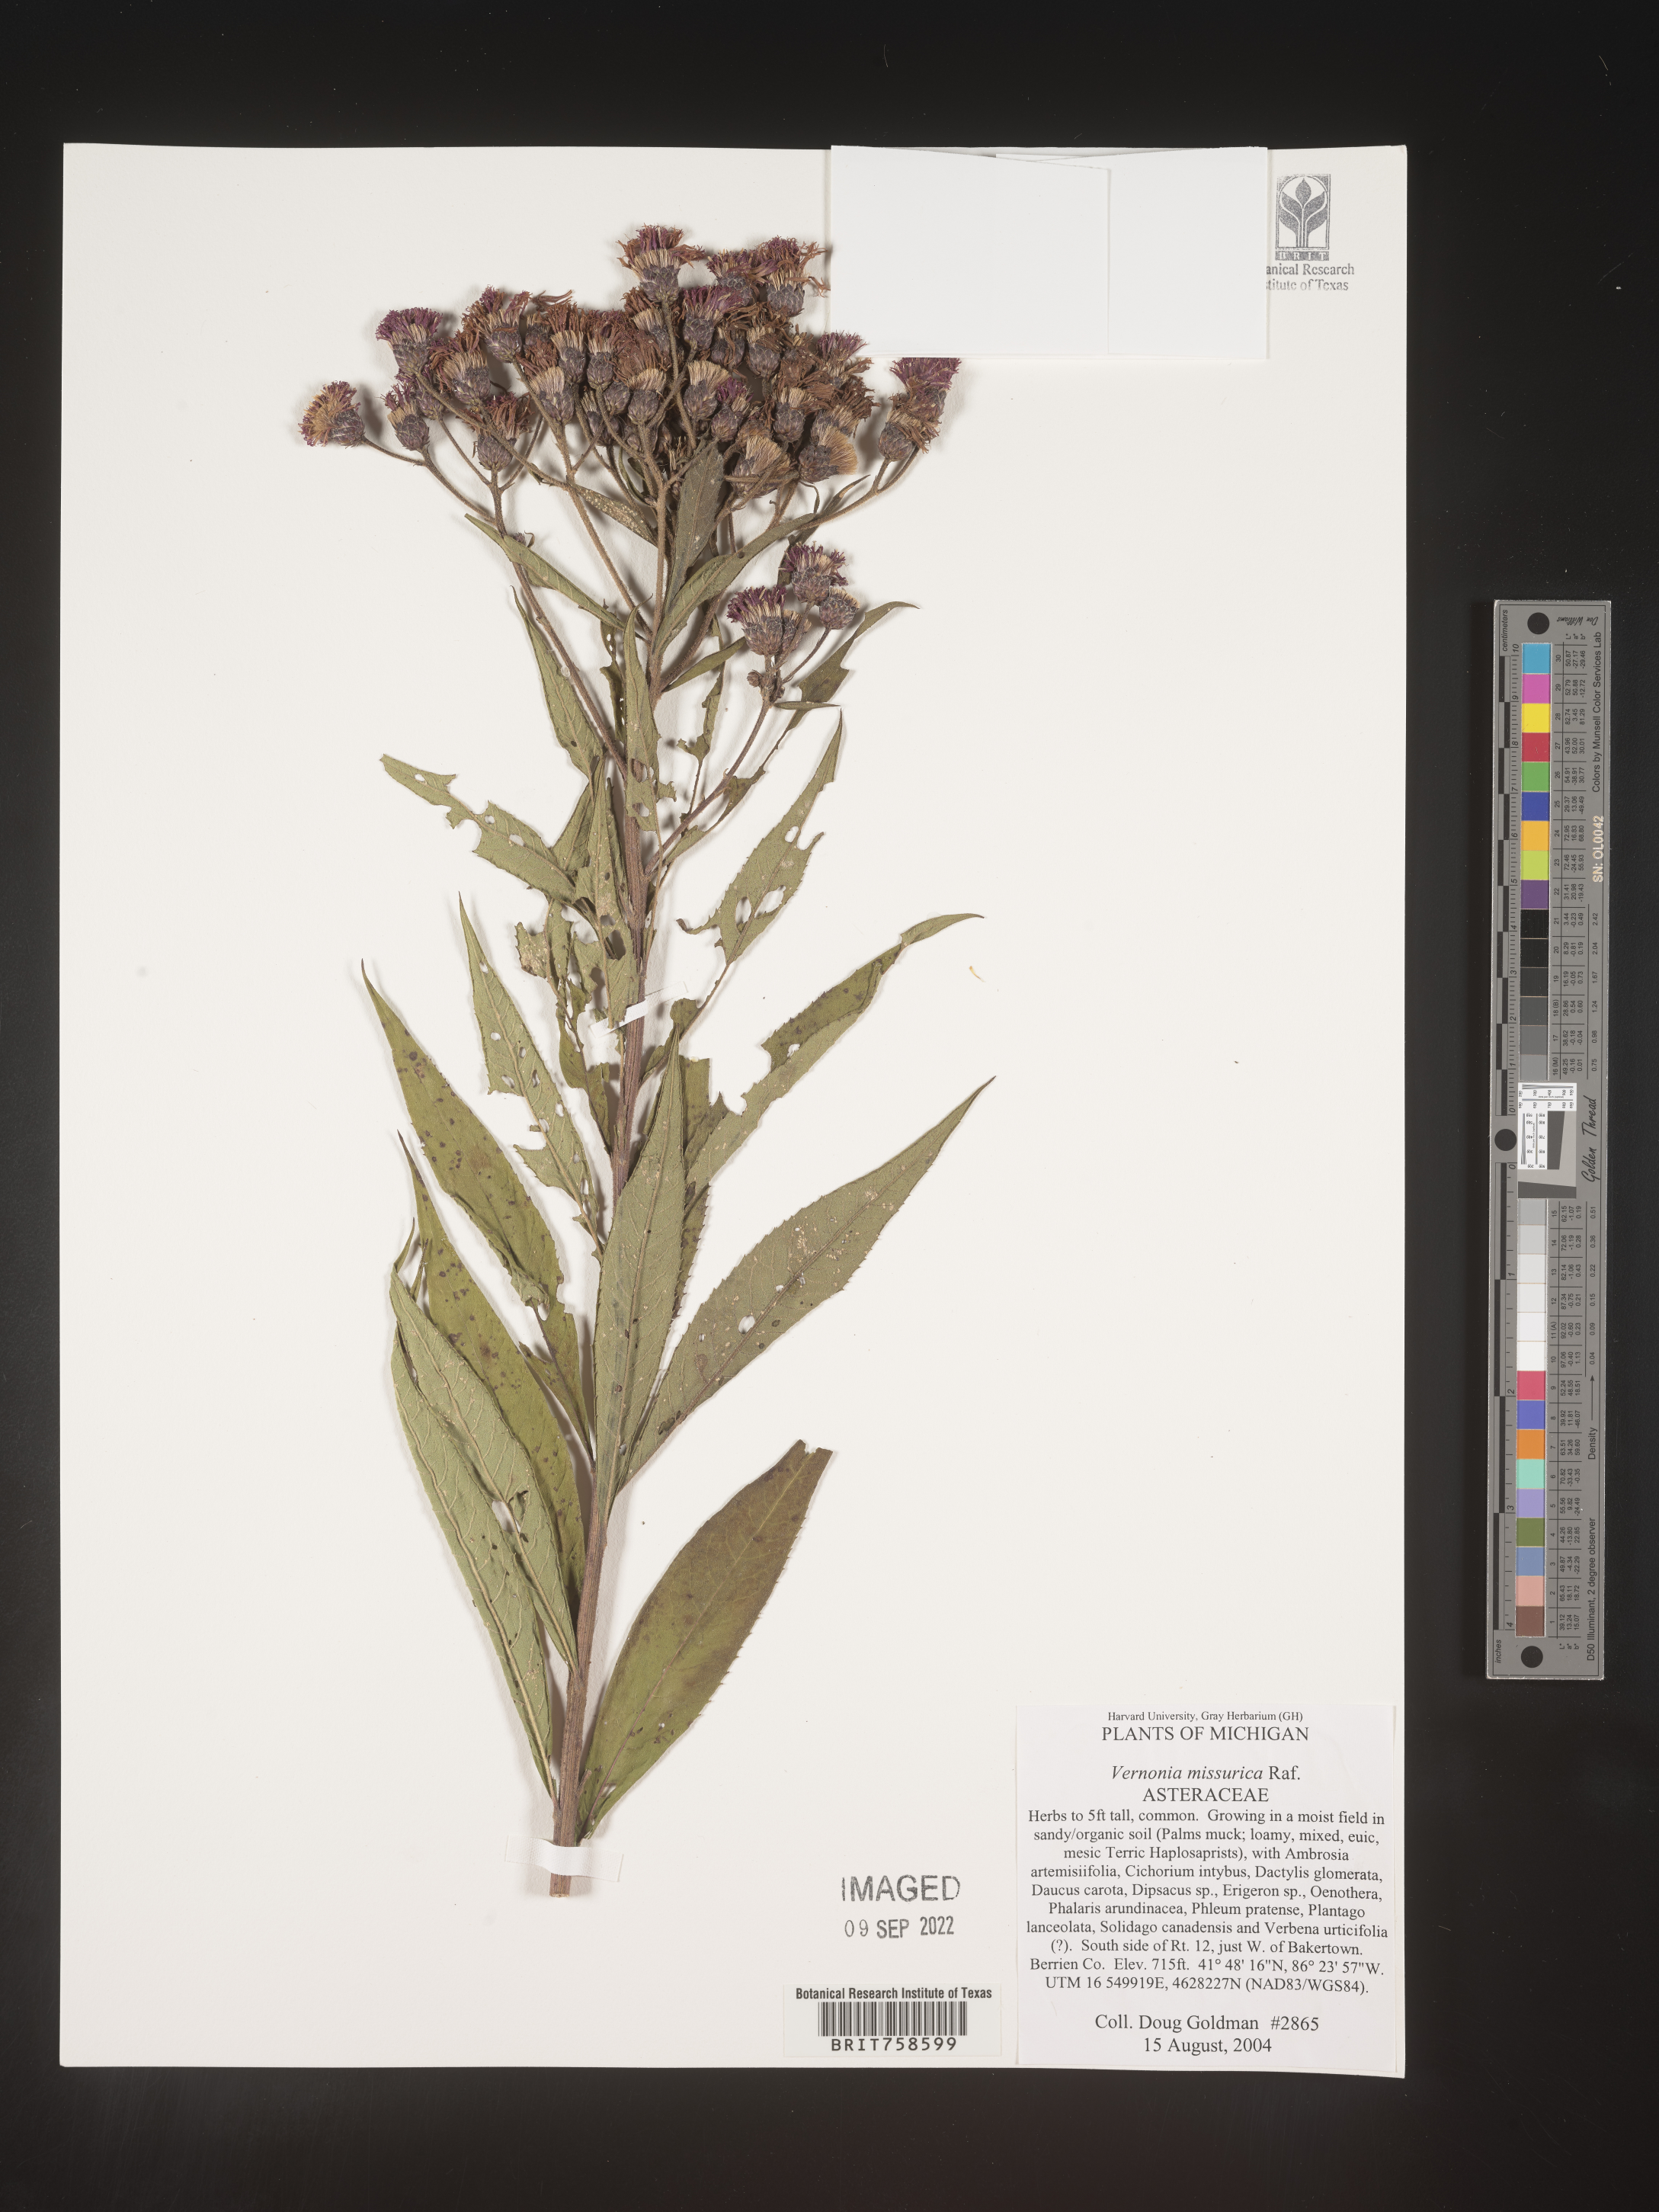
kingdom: Plantae
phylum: Tracheophyta
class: Magnoliopsida
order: Asterales
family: Asteraceae
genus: Vernonia
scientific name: Vernonia missurica
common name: Missouri ironweed
